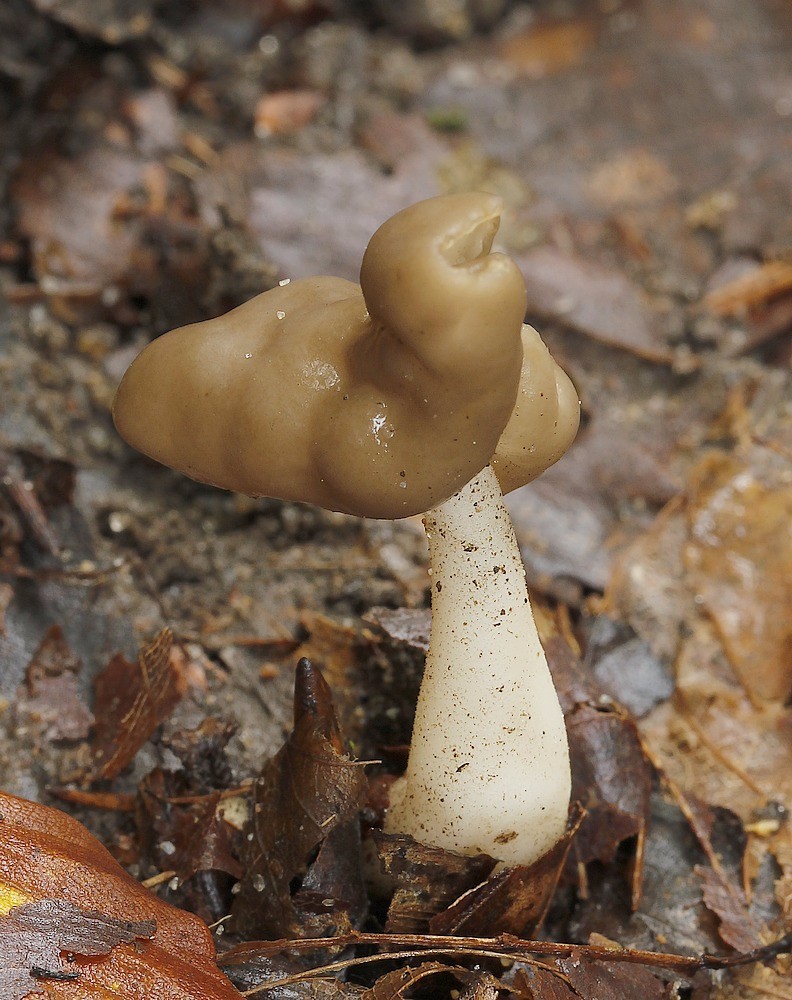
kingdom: Fungi
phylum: Ascomycota
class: Pezizomycetes
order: Pezizales
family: Helvellaceae
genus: Helvella
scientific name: Helvella elastica
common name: elastik-foldhat
